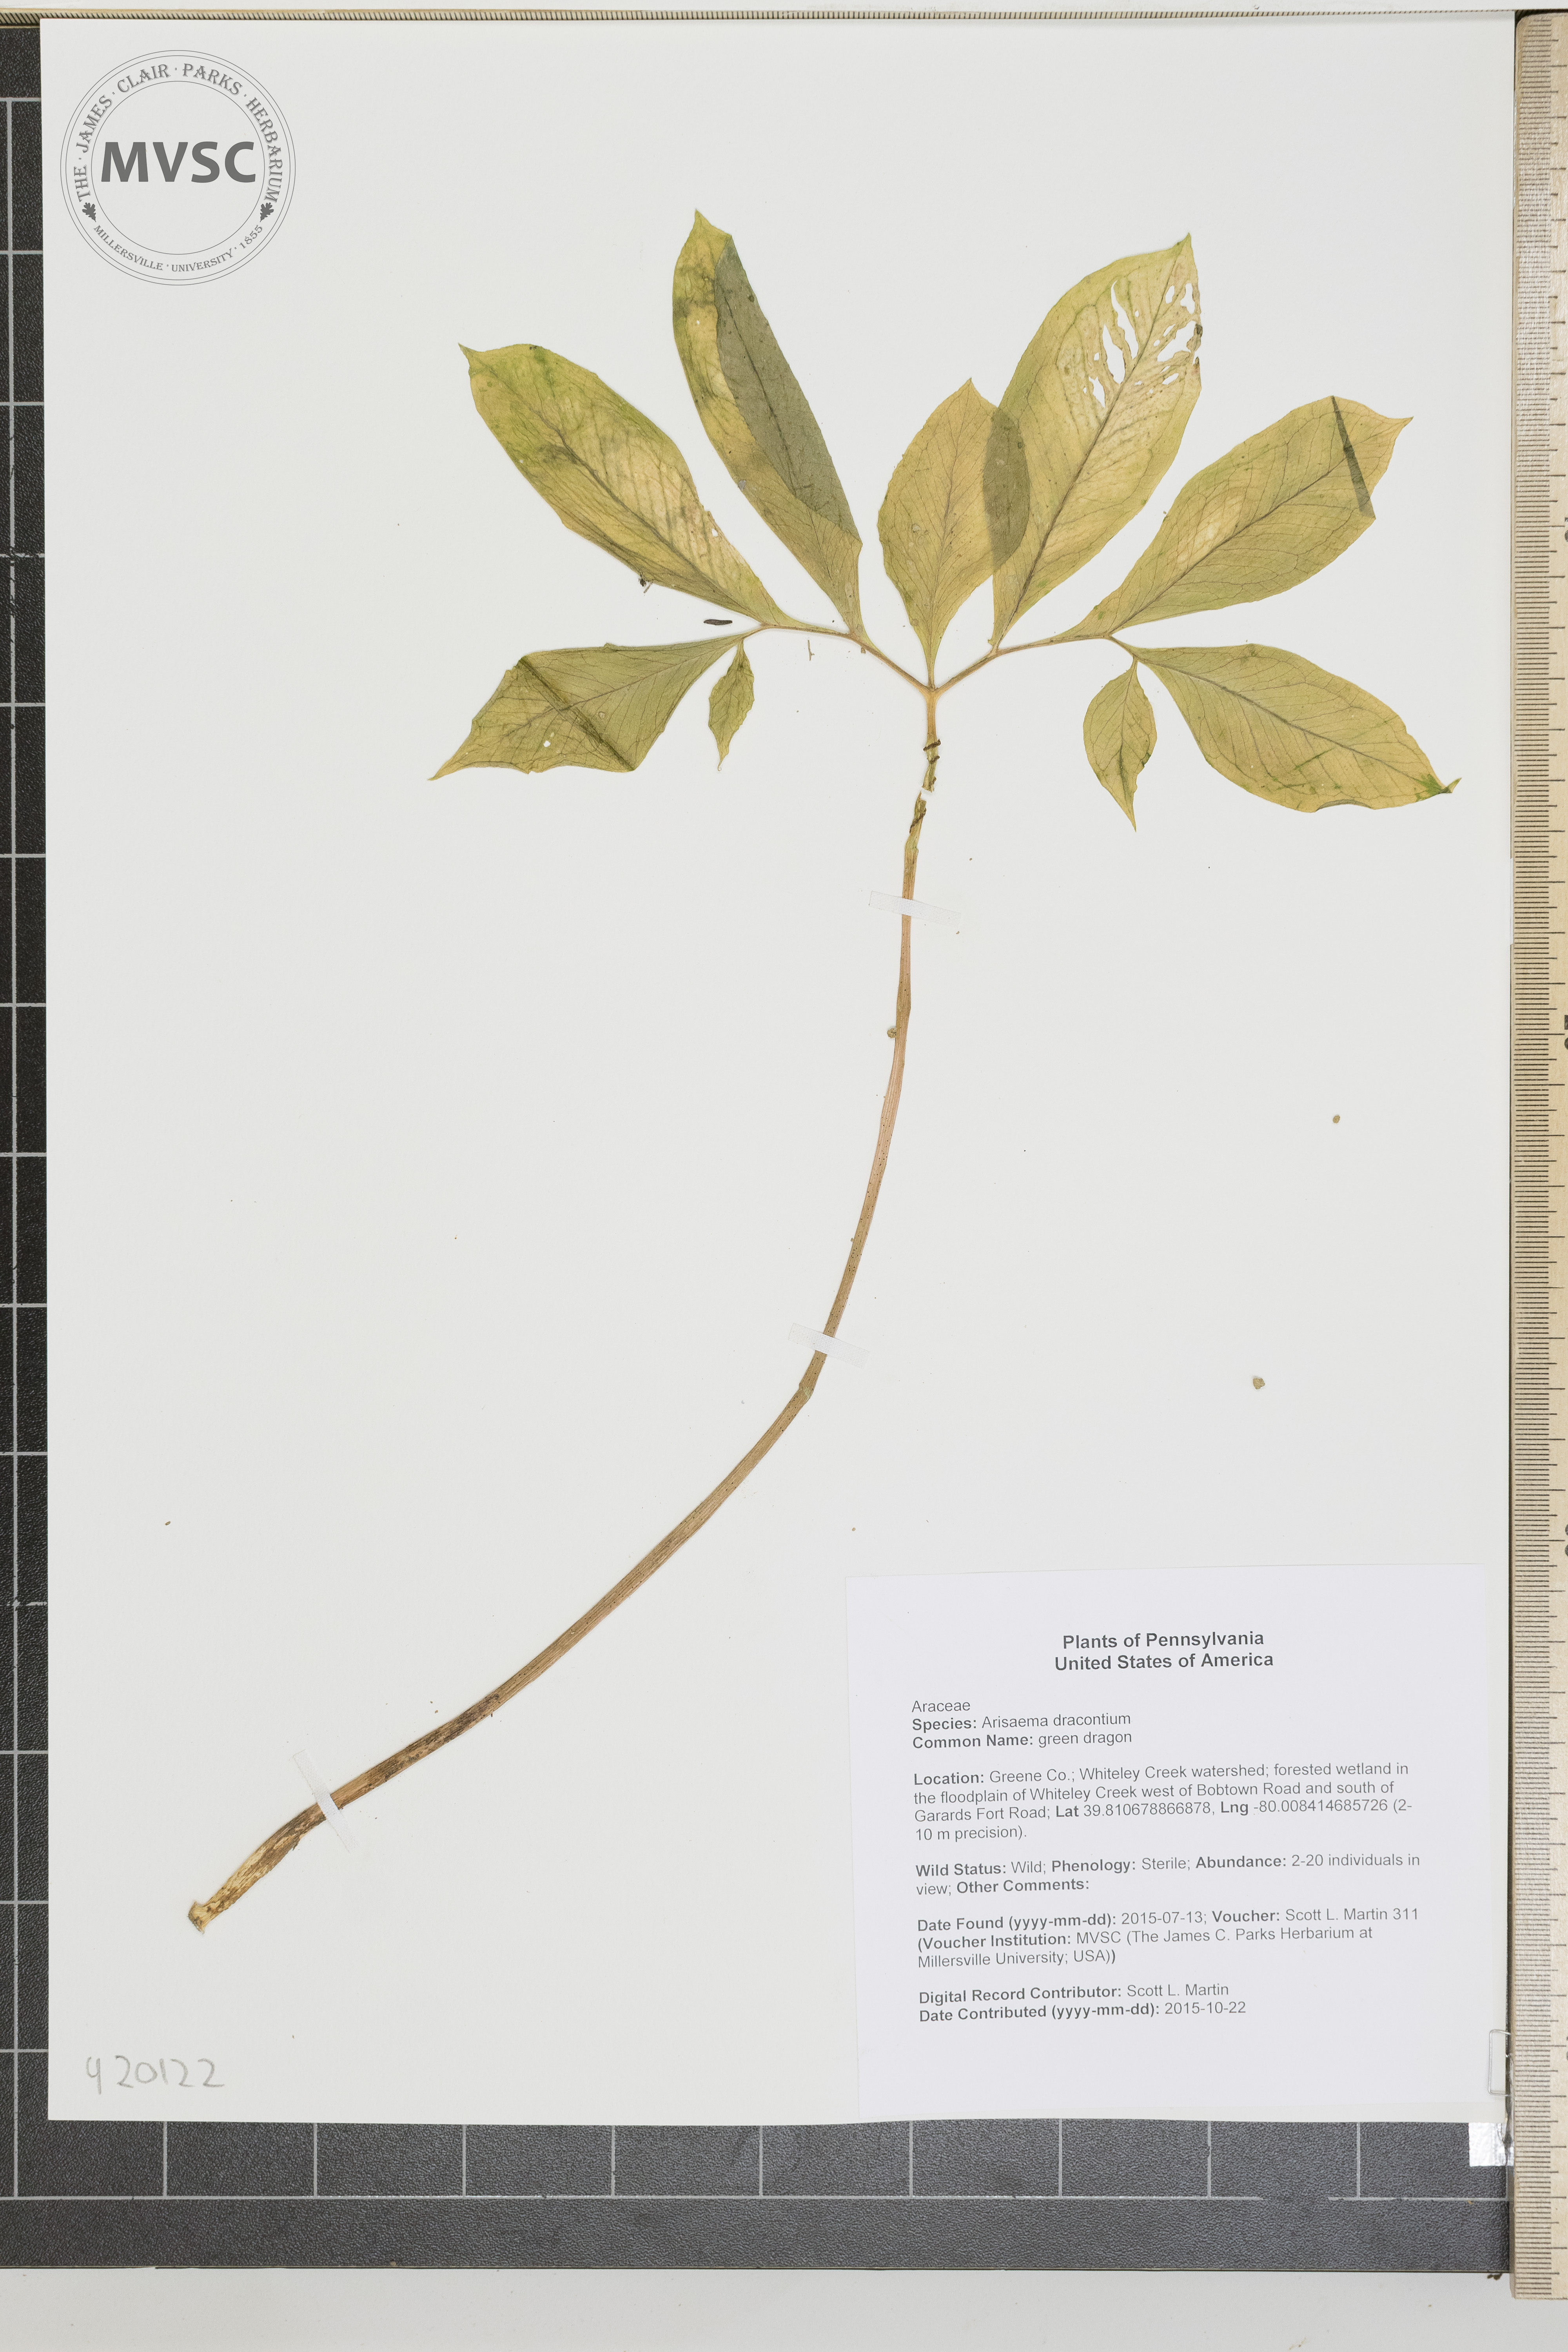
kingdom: Plantae
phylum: Tracheophyta
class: Liliopsida
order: Alismatales
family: Araceae
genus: Arisaema
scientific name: Arisaema dracontium
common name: green dragon
